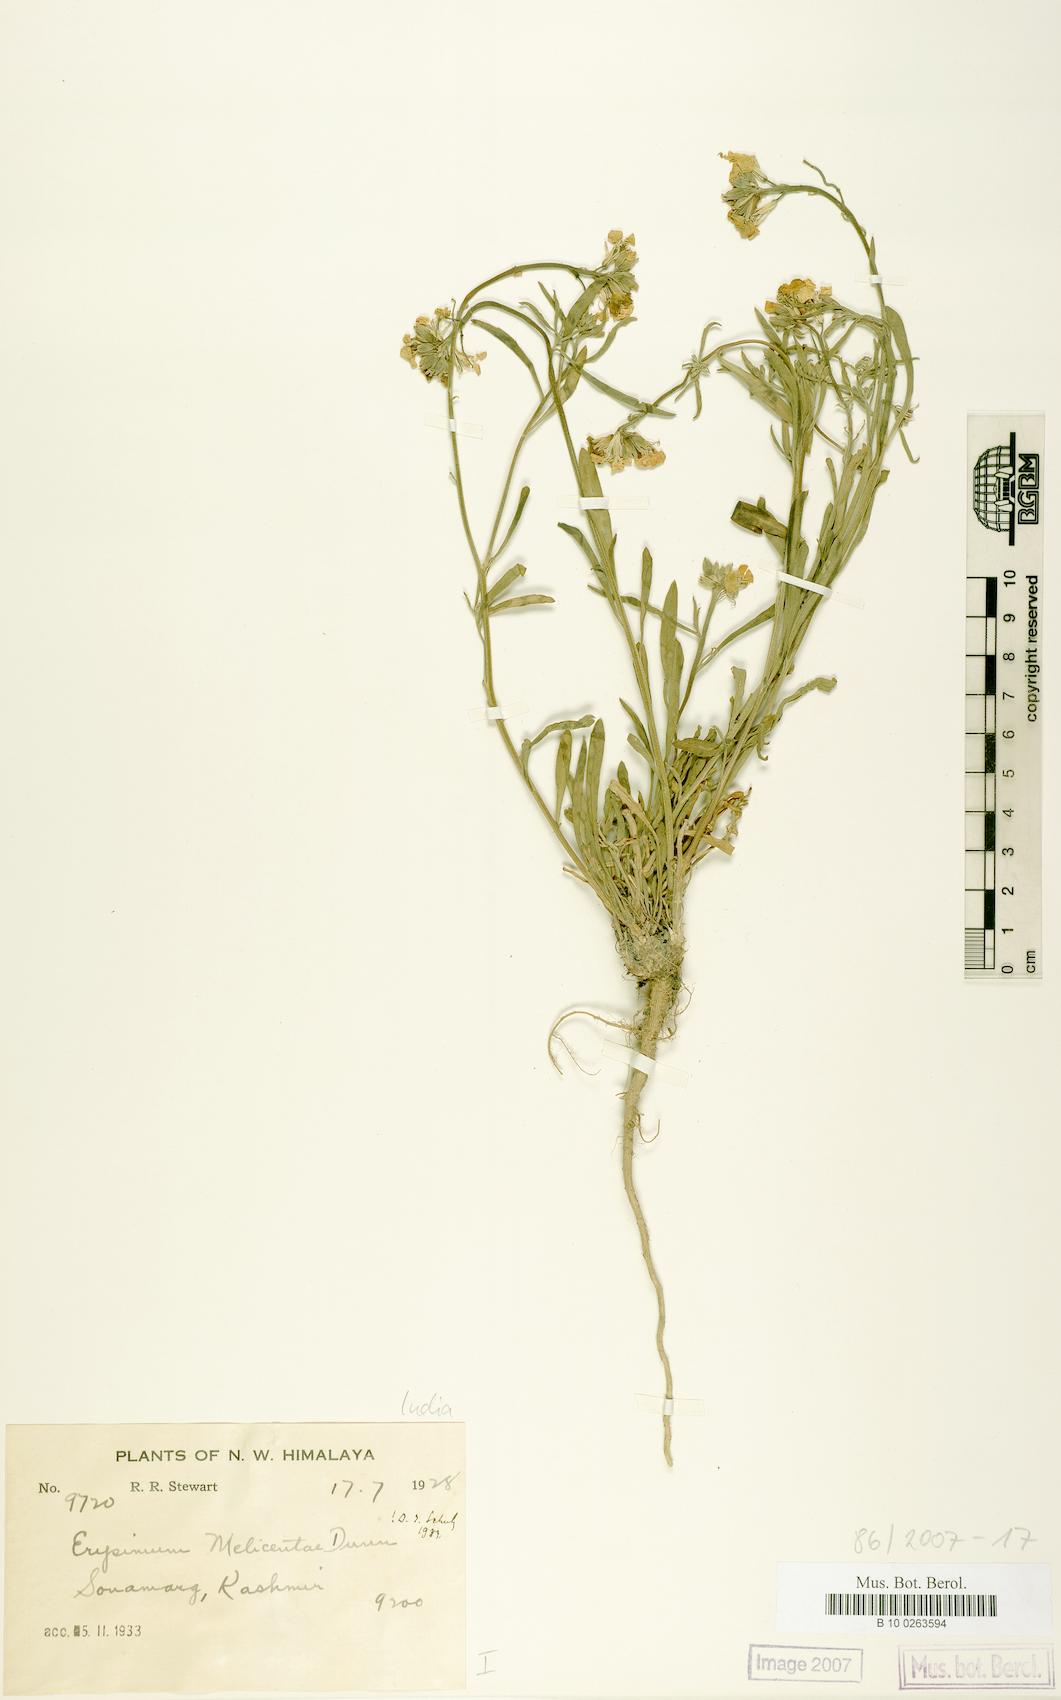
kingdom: Plantae
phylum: Tracheophyta
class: Magnoliopsida
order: Brassicales
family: Brassicaceae
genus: Erysimum
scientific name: Erysimum melicentae
